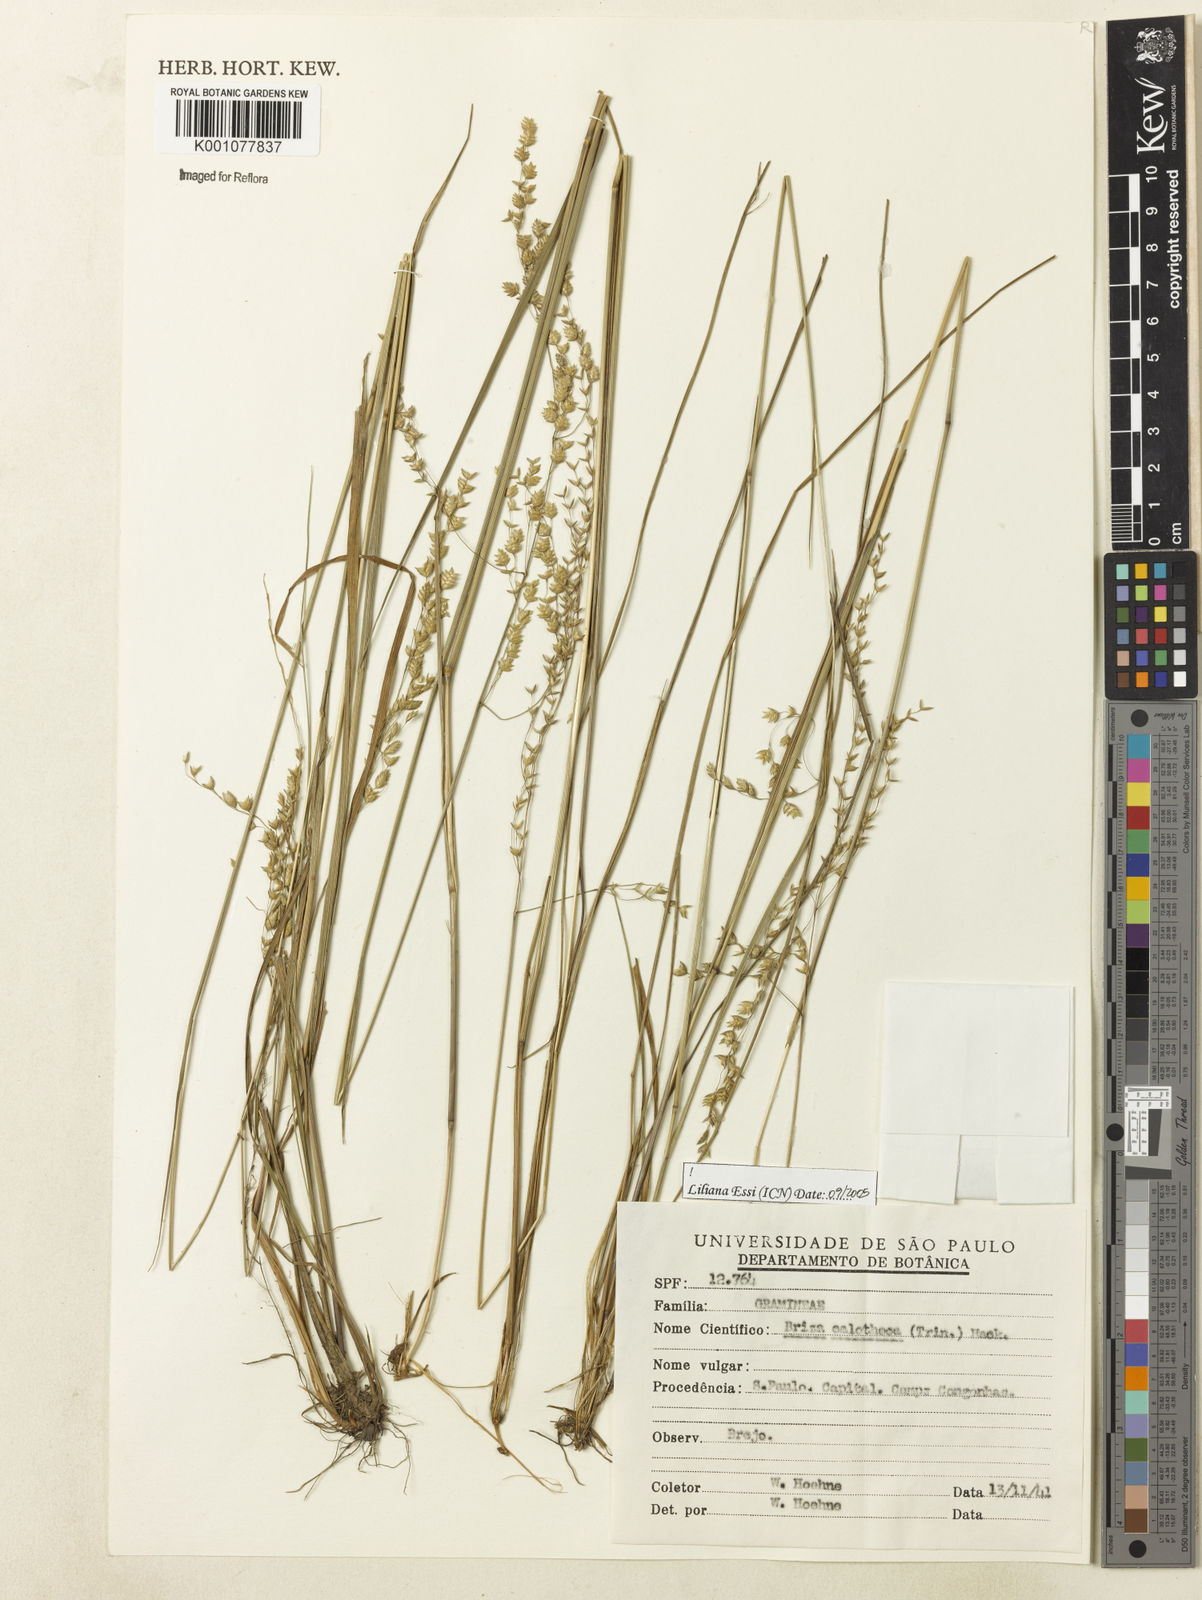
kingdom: Plantae
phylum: Tracheophyta
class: Liliopsida
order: Poales
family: Poaceae
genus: Poidium
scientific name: Poidium calotheca
